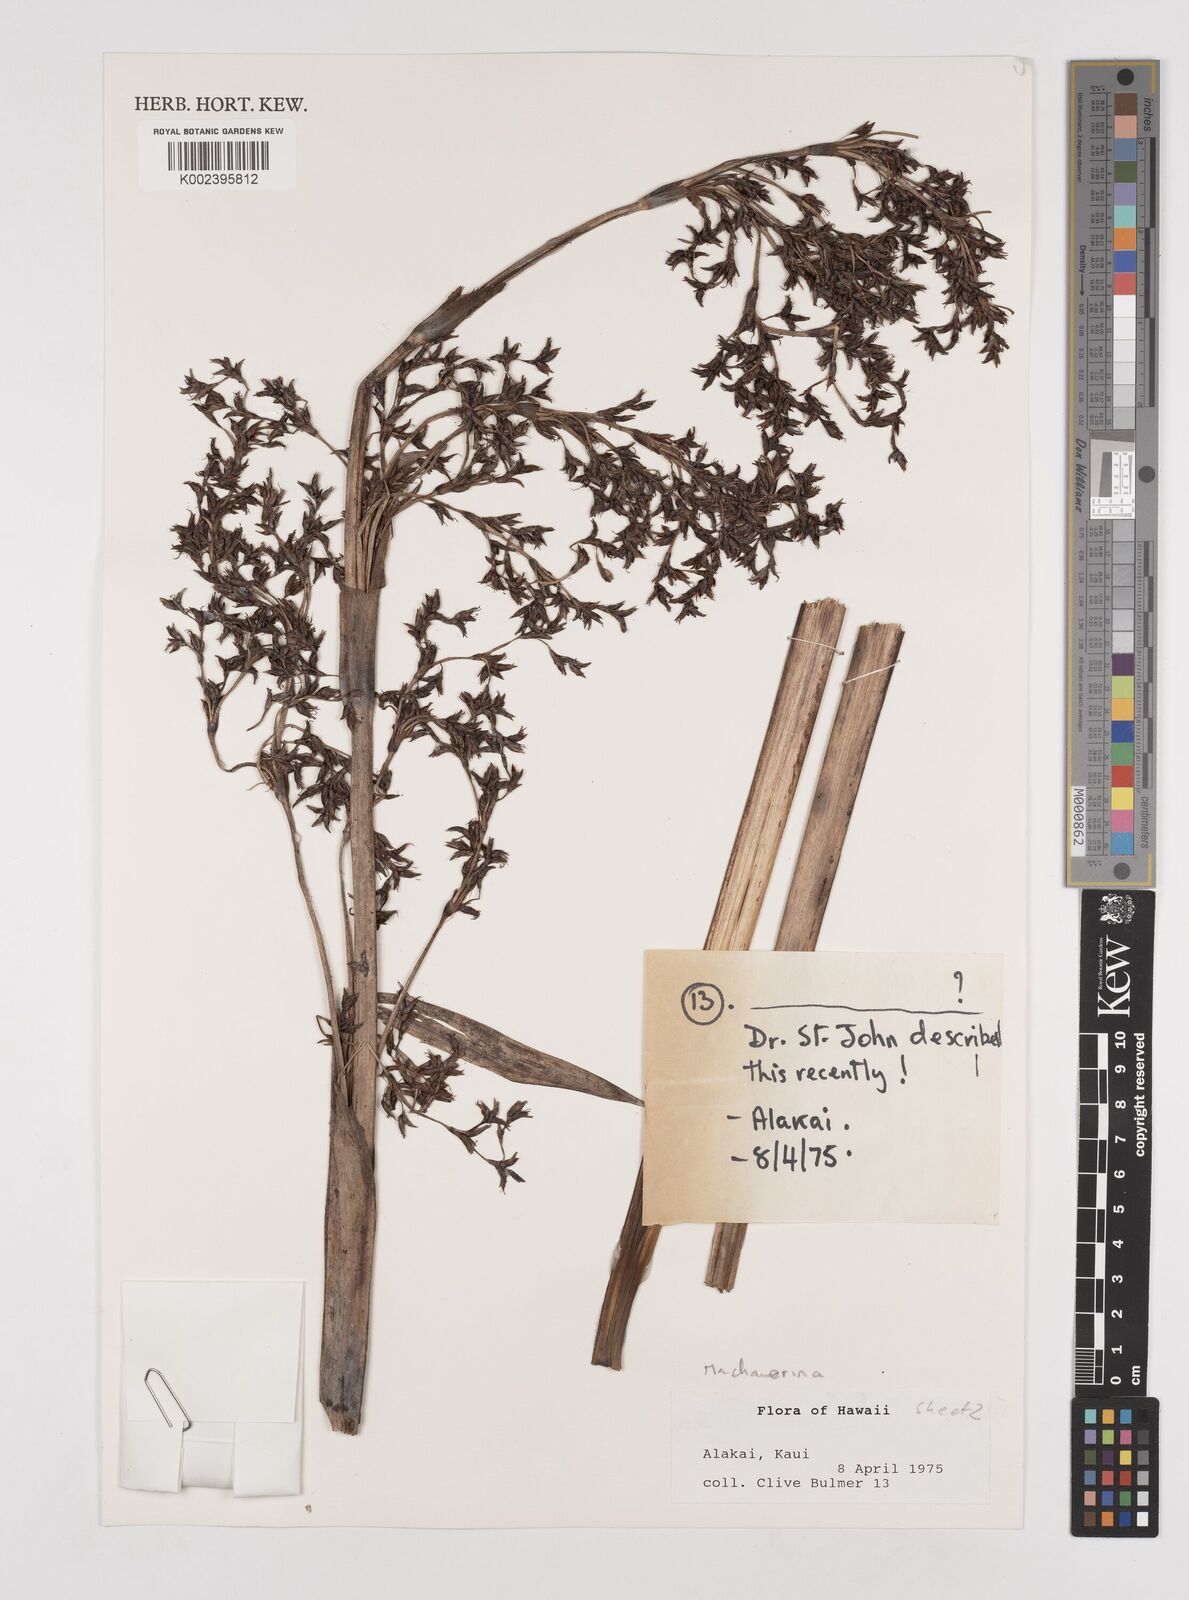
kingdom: Plantae
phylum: Tracheophyta
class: Liliopsida
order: Poales
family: Cyperaceae
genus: Machaerina
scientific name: Machaerina
